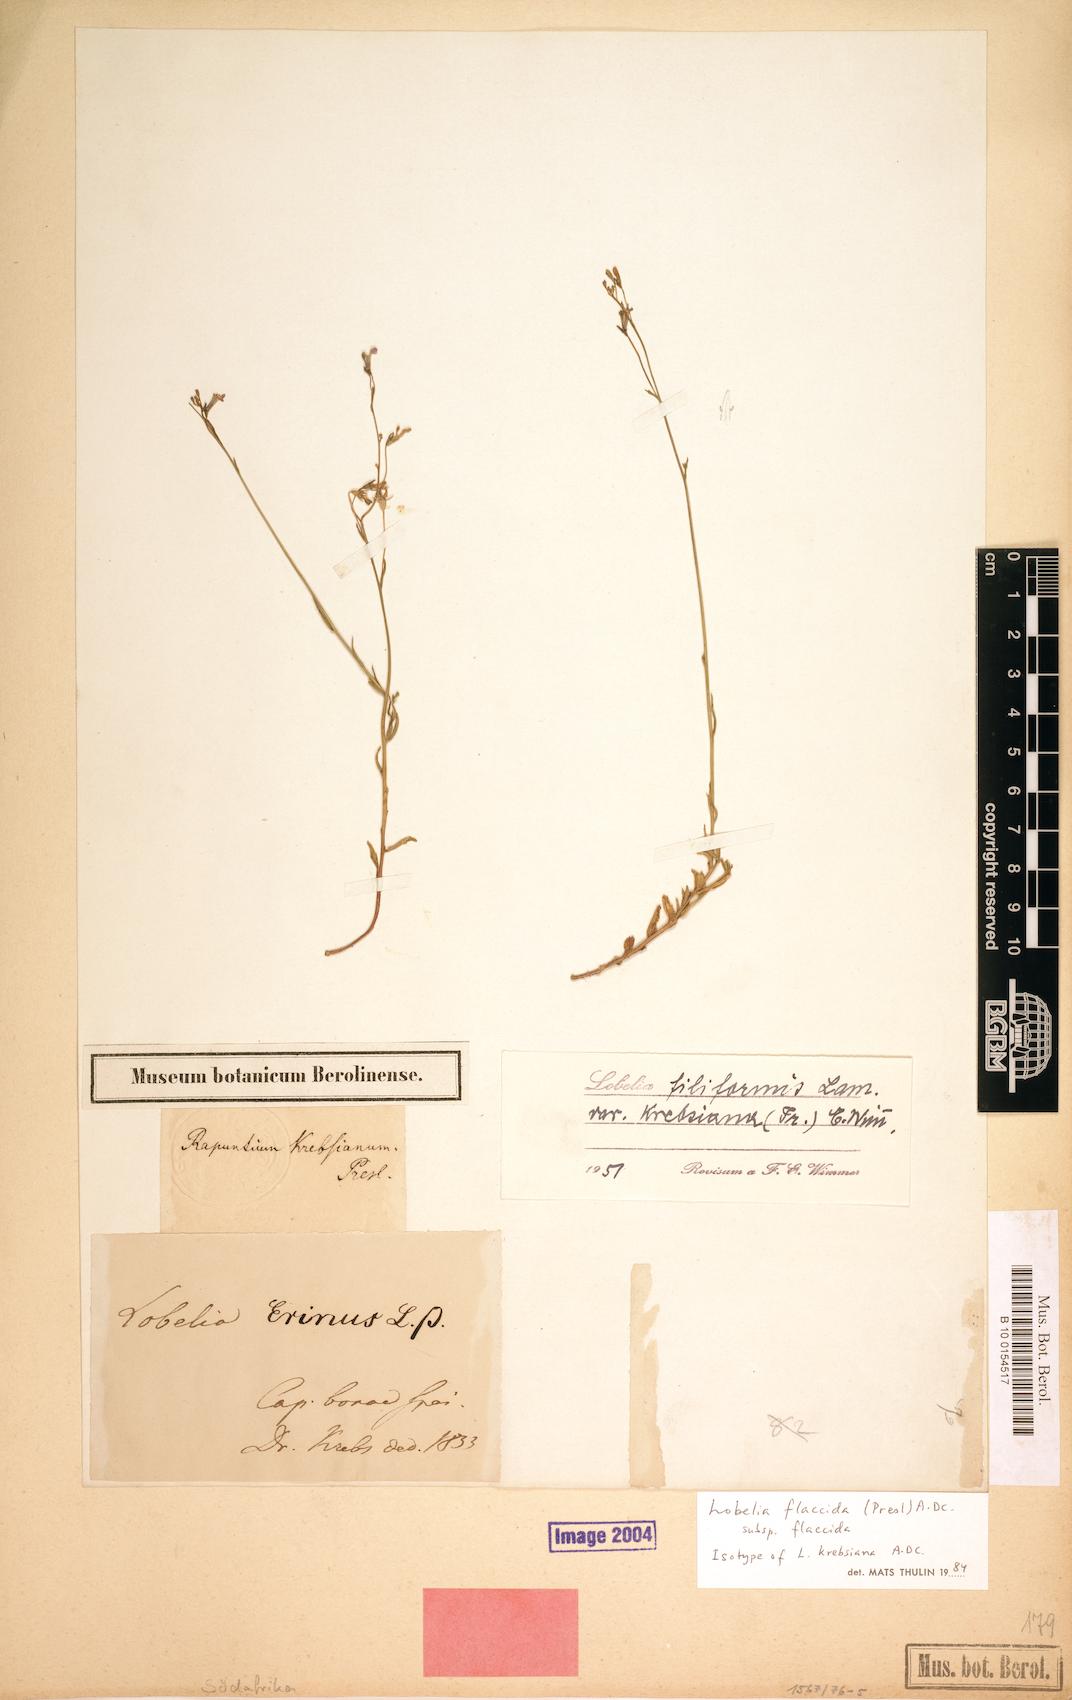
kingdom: Plantae
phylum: Tracheophyta
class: Magnoliopsida
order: Asterales
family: Campanulaceae
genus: Lobelia
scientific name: Lobelia flaccida
